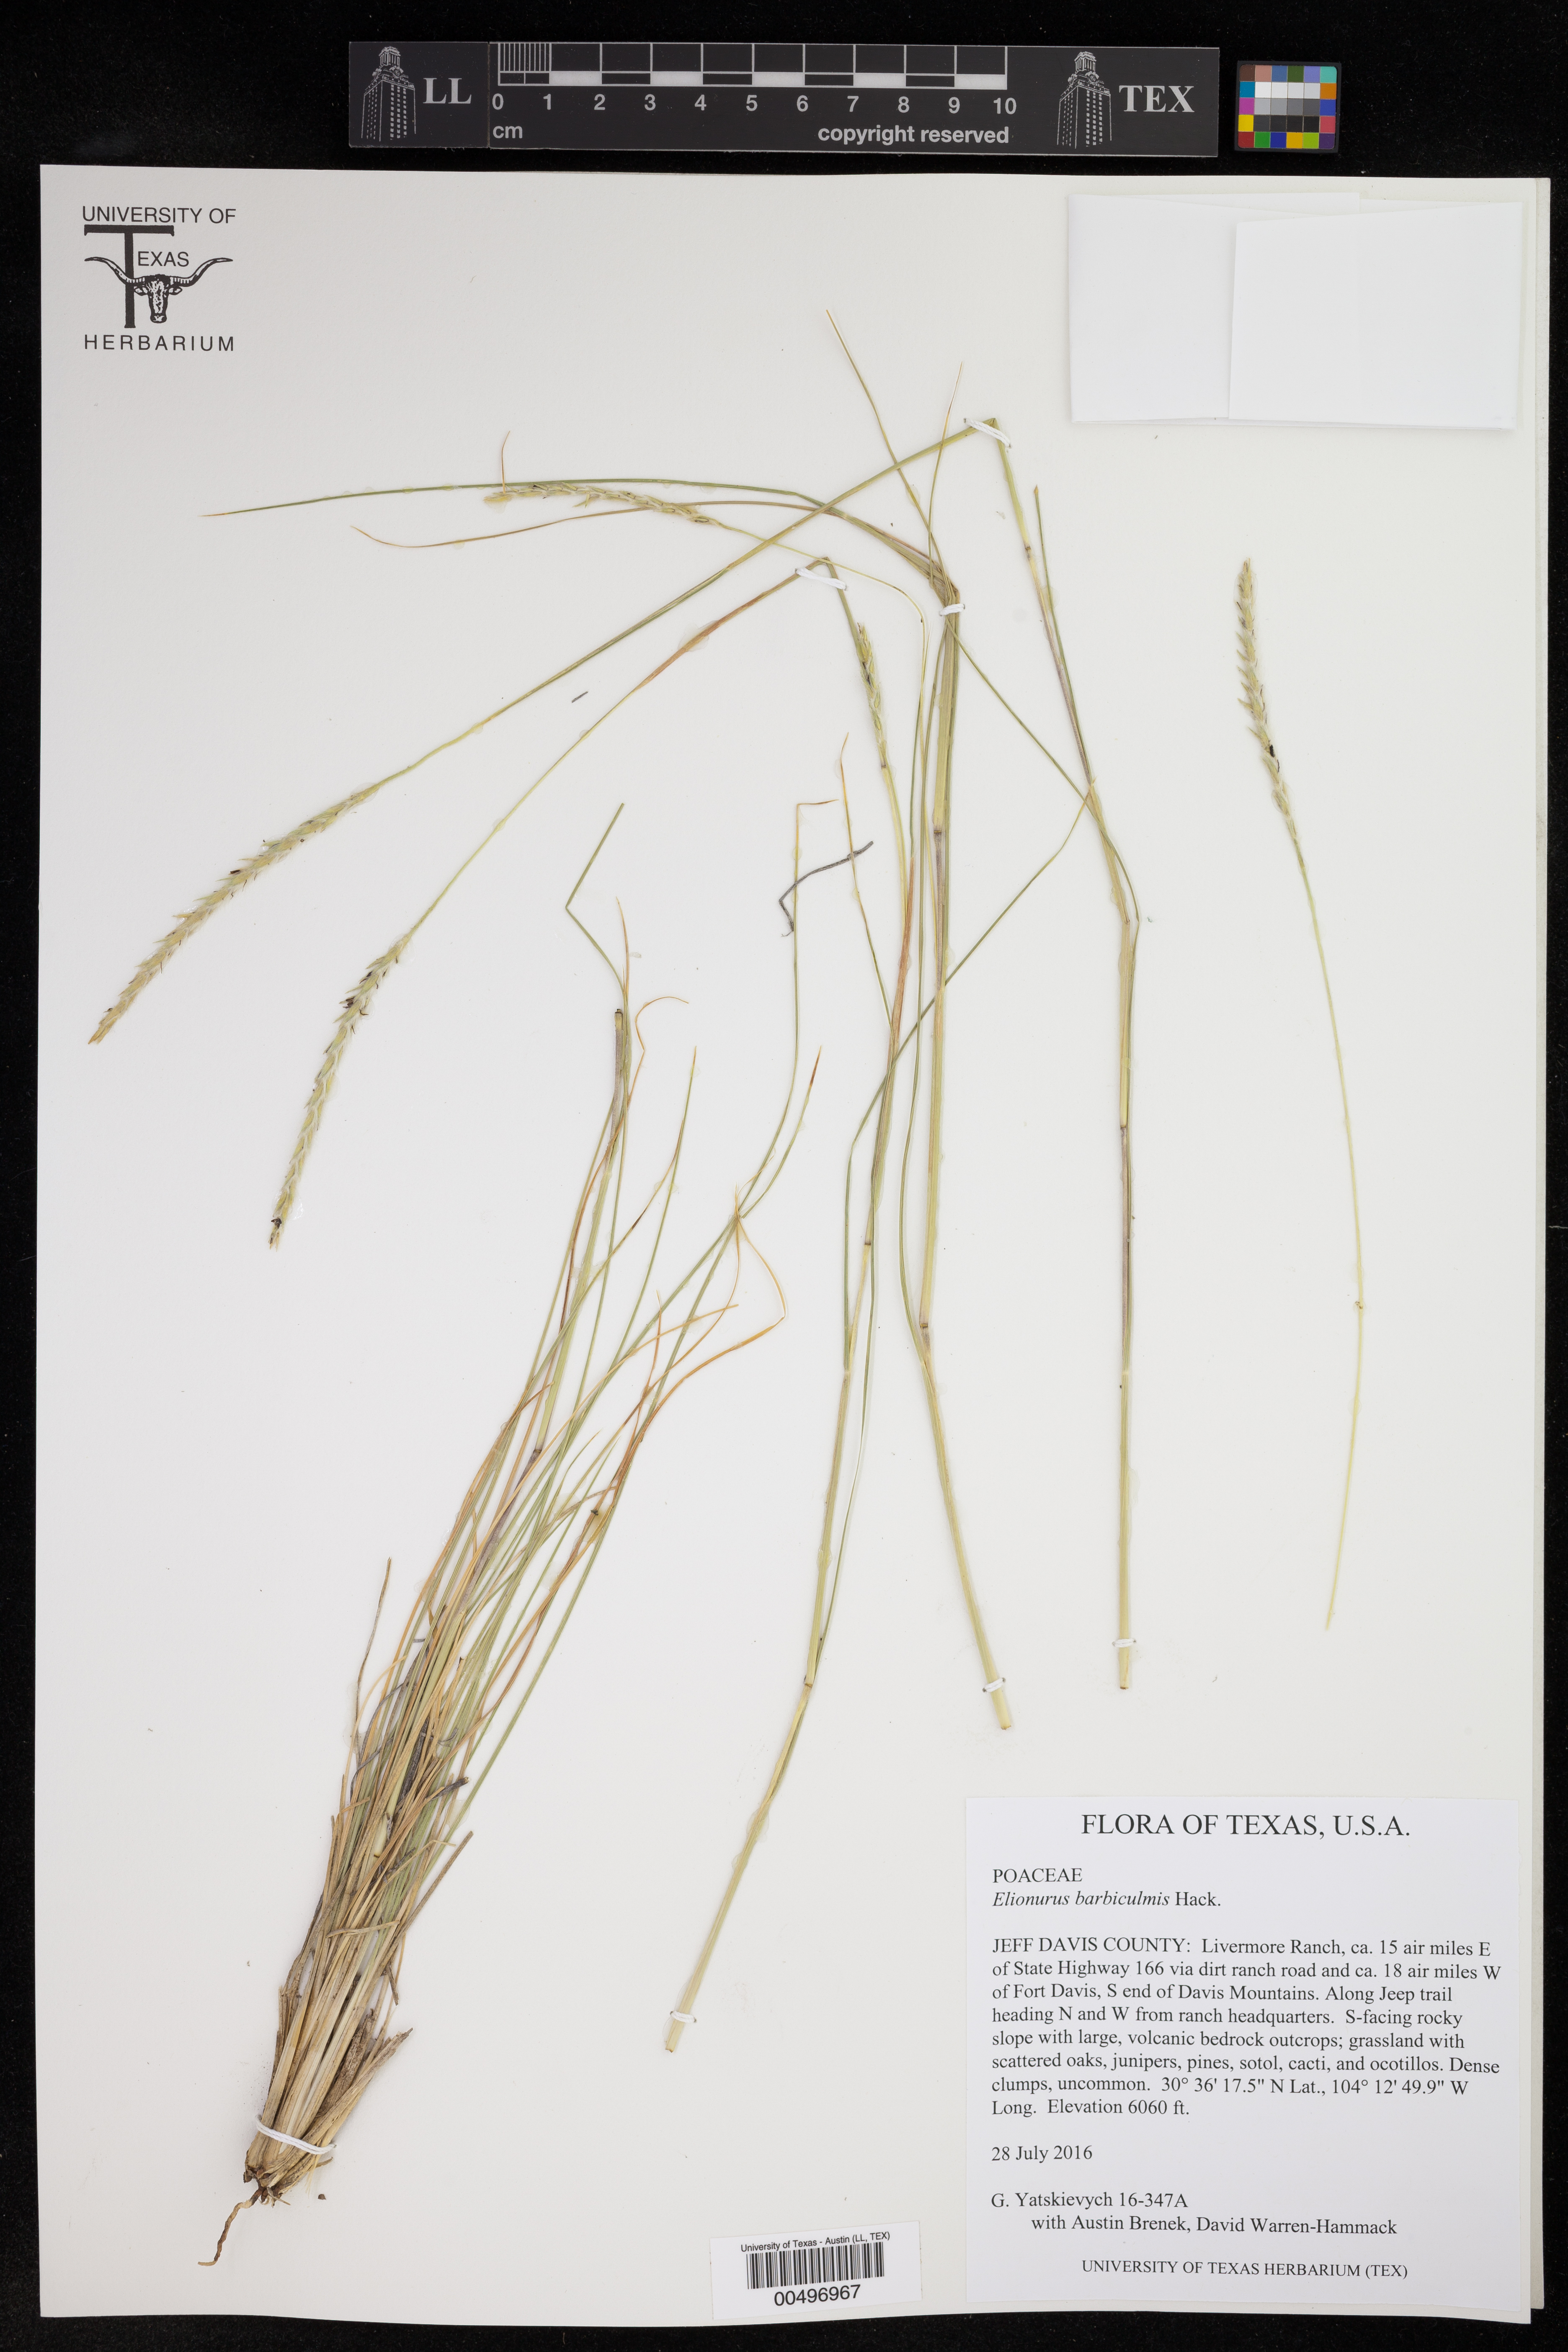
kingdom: Plantae
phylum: Tracheophyta
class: Liliopsida
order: Poales
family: Poaceae
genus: Elionurus
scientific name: Elionurus barbiculmis
